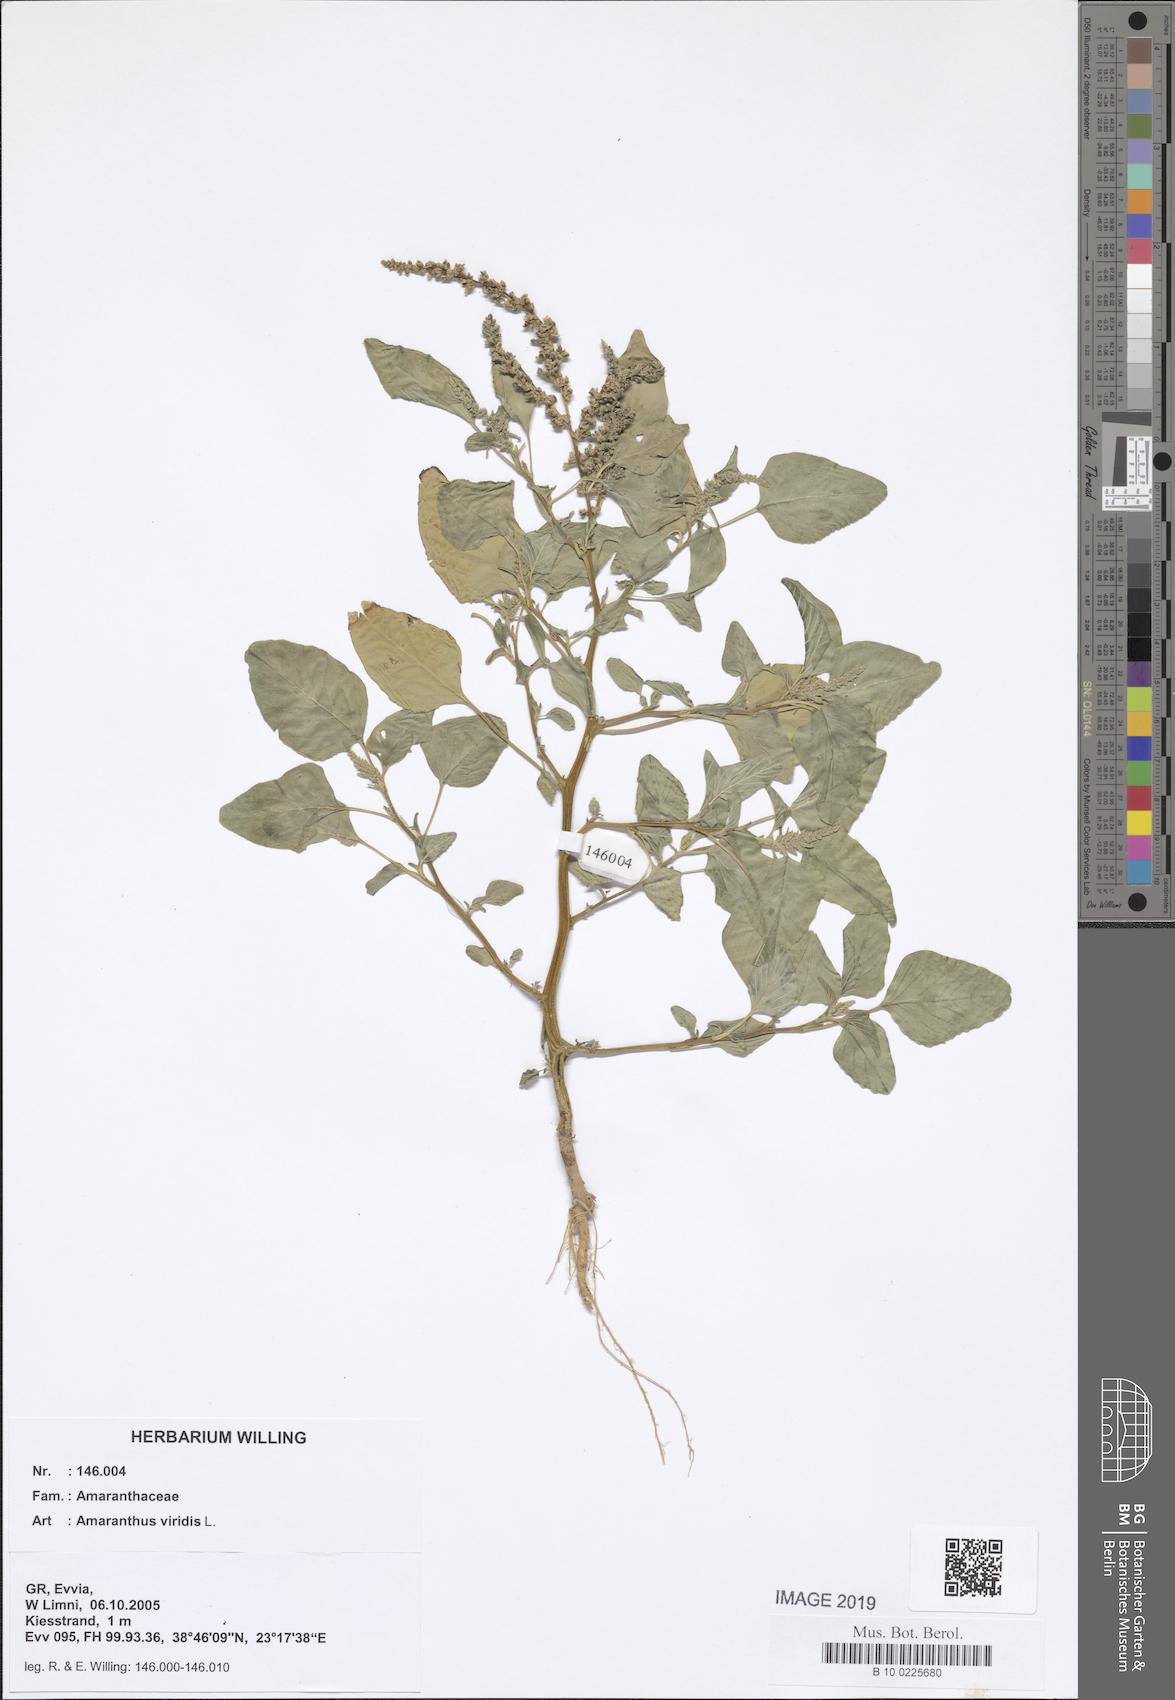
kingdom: Plantae
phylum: Tracheophyta
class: Magnoliopsida
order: Caryophyllales
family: Amaranthaceae
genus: Amaranthus
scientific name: Amaranthus viridis
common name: Slender amaranth
